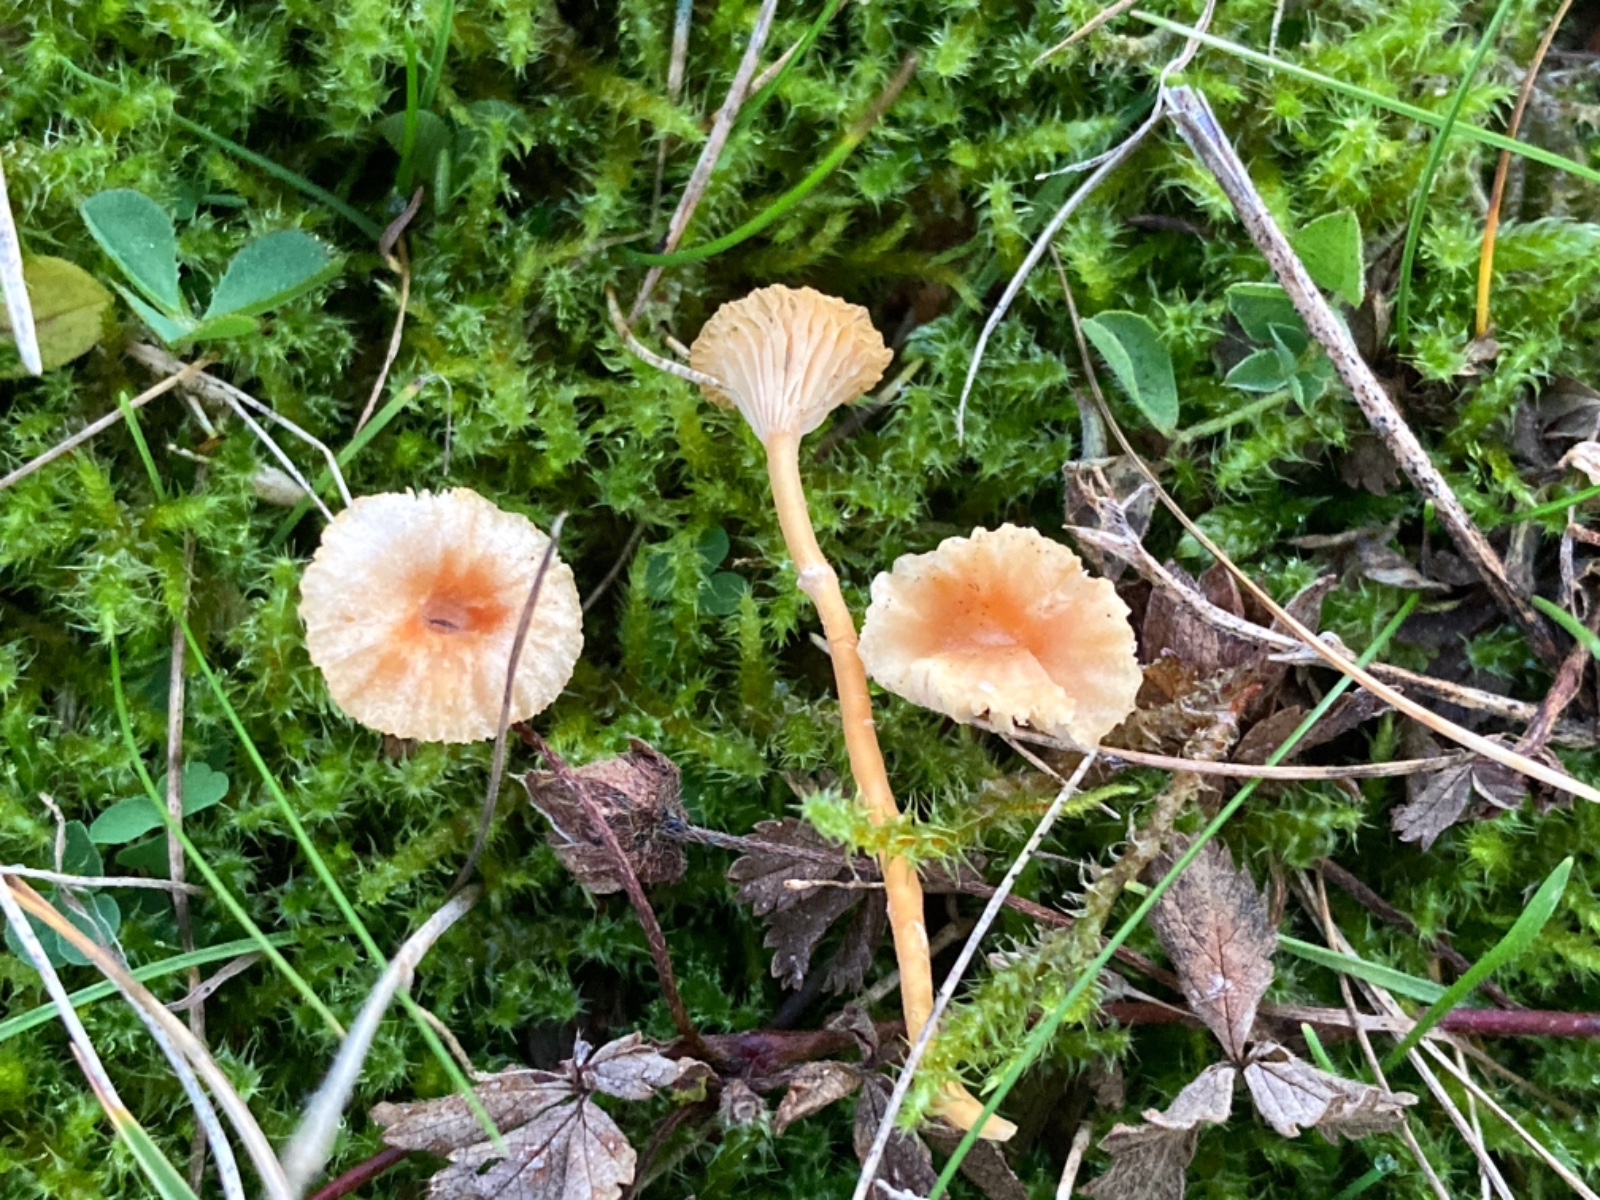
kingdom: Fungi
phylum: Basidiomycota
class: Agaricomycetes
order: Hymenochaetales
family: Rickenellaceae
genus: Rickenella
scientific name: Rickenella fibula
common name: orange mosnavlehat
